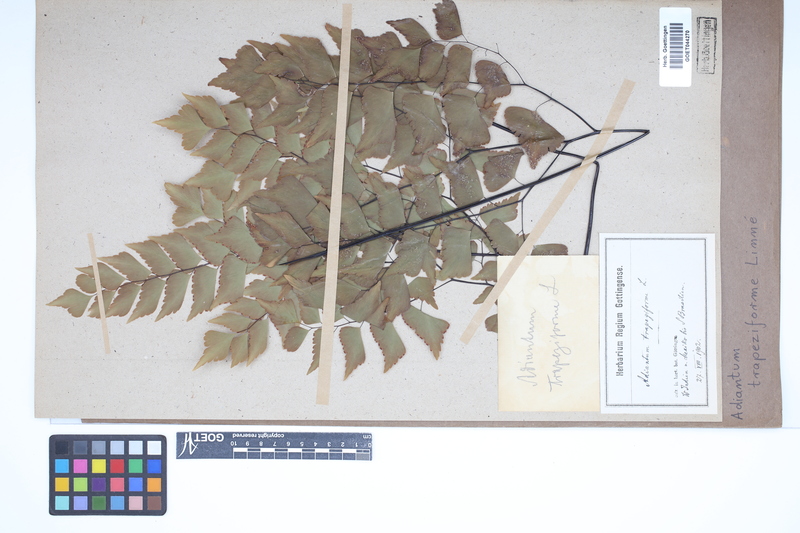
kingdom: Plantae
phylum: Tracheophyta
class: Polypodiopsida
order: Polypodiales
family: Pteridaceae
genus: Adiantum
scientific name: Adiantum trapeziforme
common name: Diamond maidenhair
